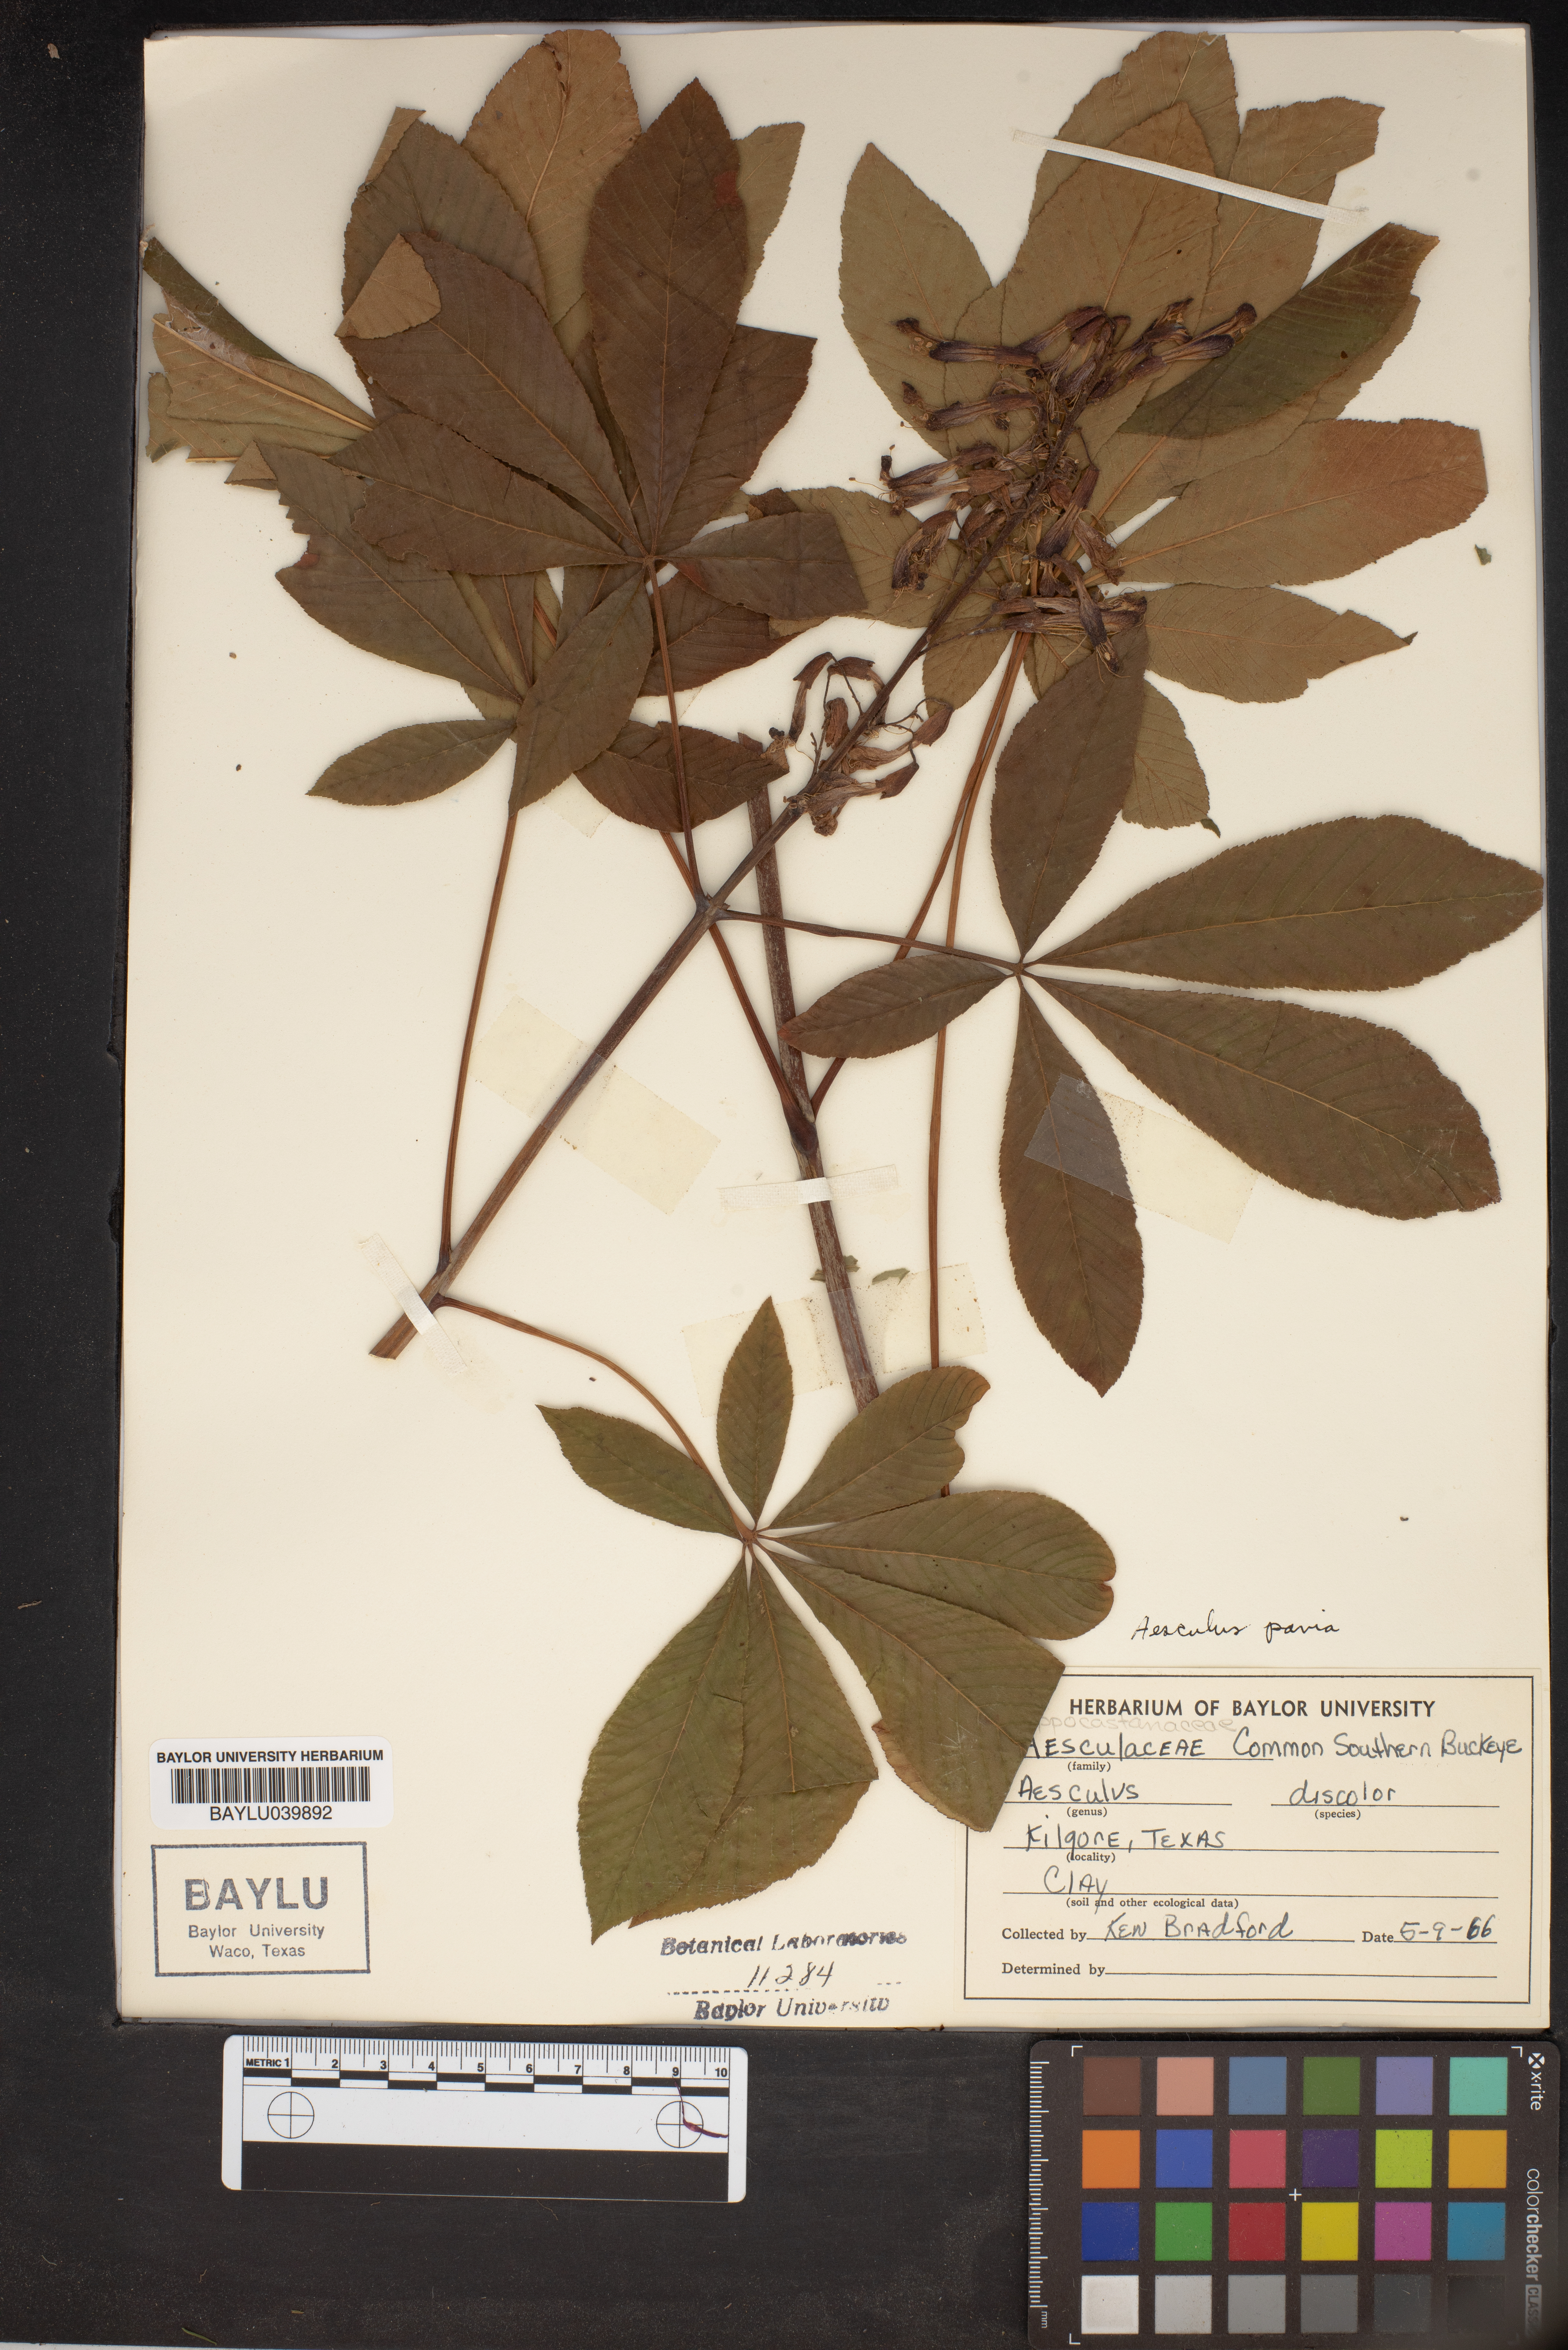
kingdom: Plantae
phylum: Tracheophyta
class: Magnoliopsida
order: Sapindales
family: Sapindaceae
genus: Aesculus
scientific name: Aesculus pavia
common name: Red buckeye
